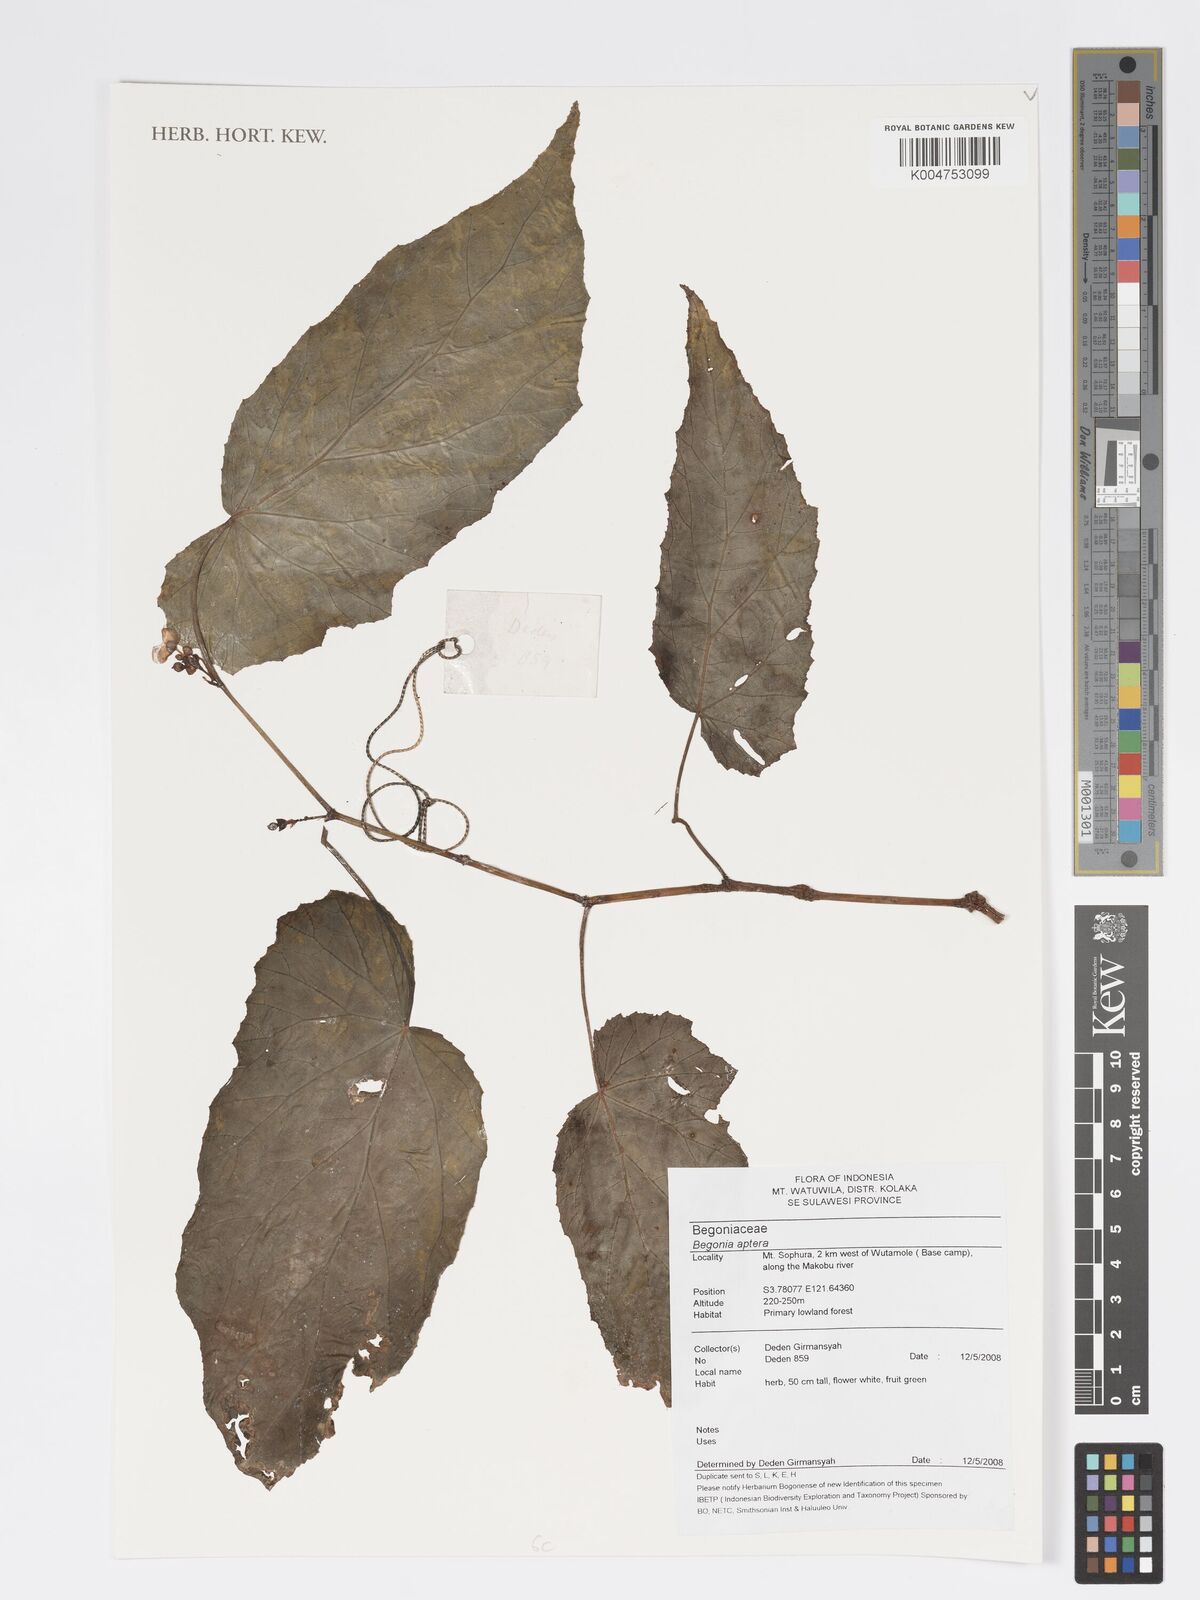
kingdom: Plantae
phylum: Tracheophyta
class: Magnoliopsida
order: Cucurbitales
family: Begoniaceae
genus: Begonia
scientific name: Begonia
